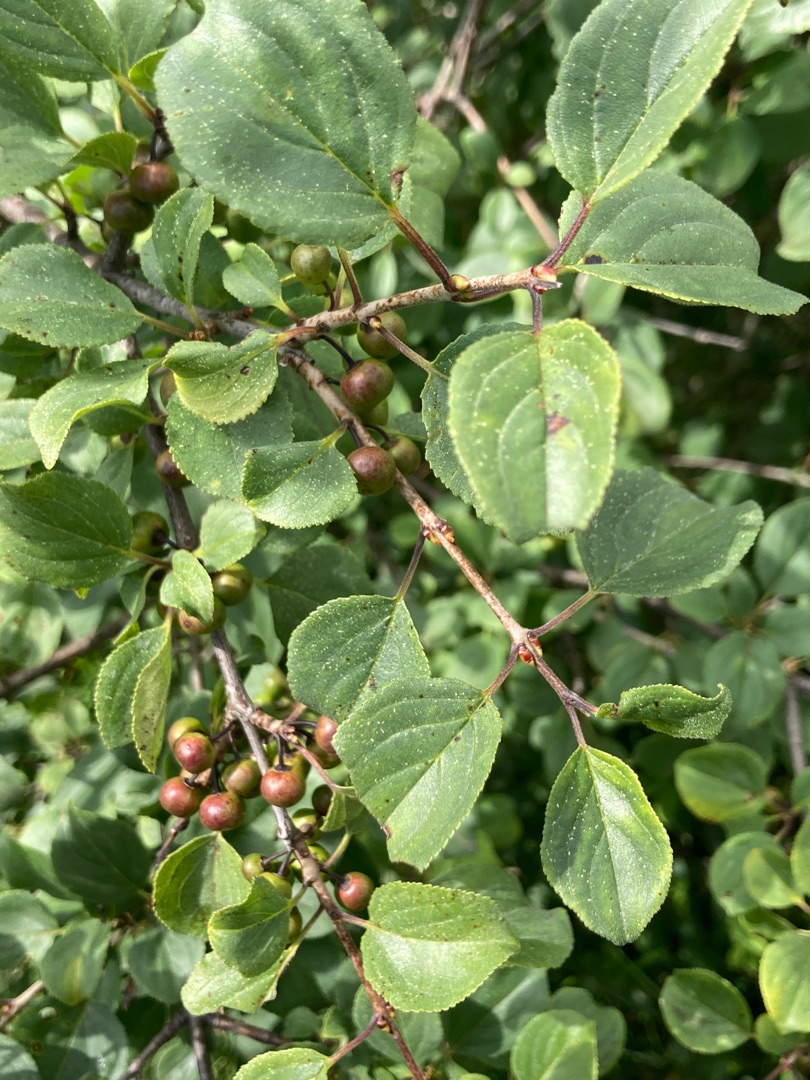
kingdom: Plantae
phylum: Tracheophyta
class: Magnoliopsida
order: Rosales
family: Rhamnaceae
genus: Rhamnus
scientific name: Rhamnus cathartica
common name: Vrietorn
